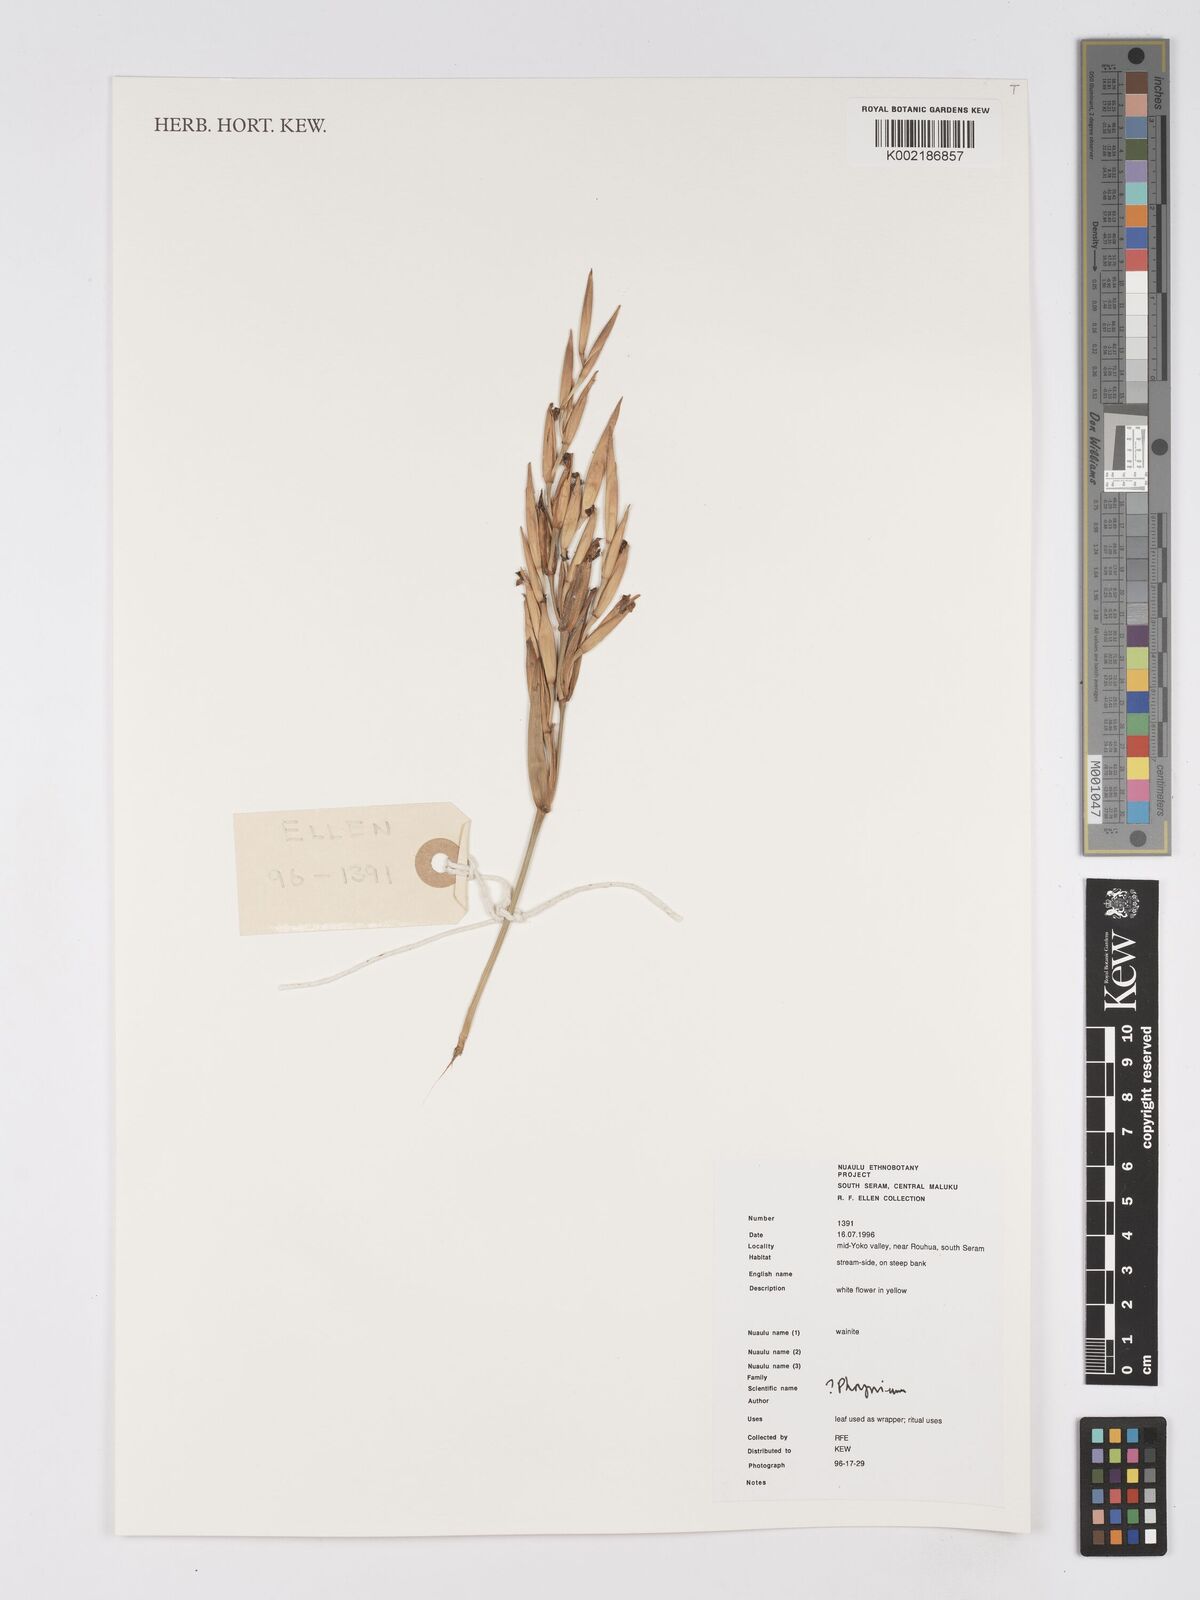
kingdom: Plantae
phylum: Tracheophyta
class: Liliopsida
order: Zingiberales
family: Marantaceae
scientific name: Marantaceae
